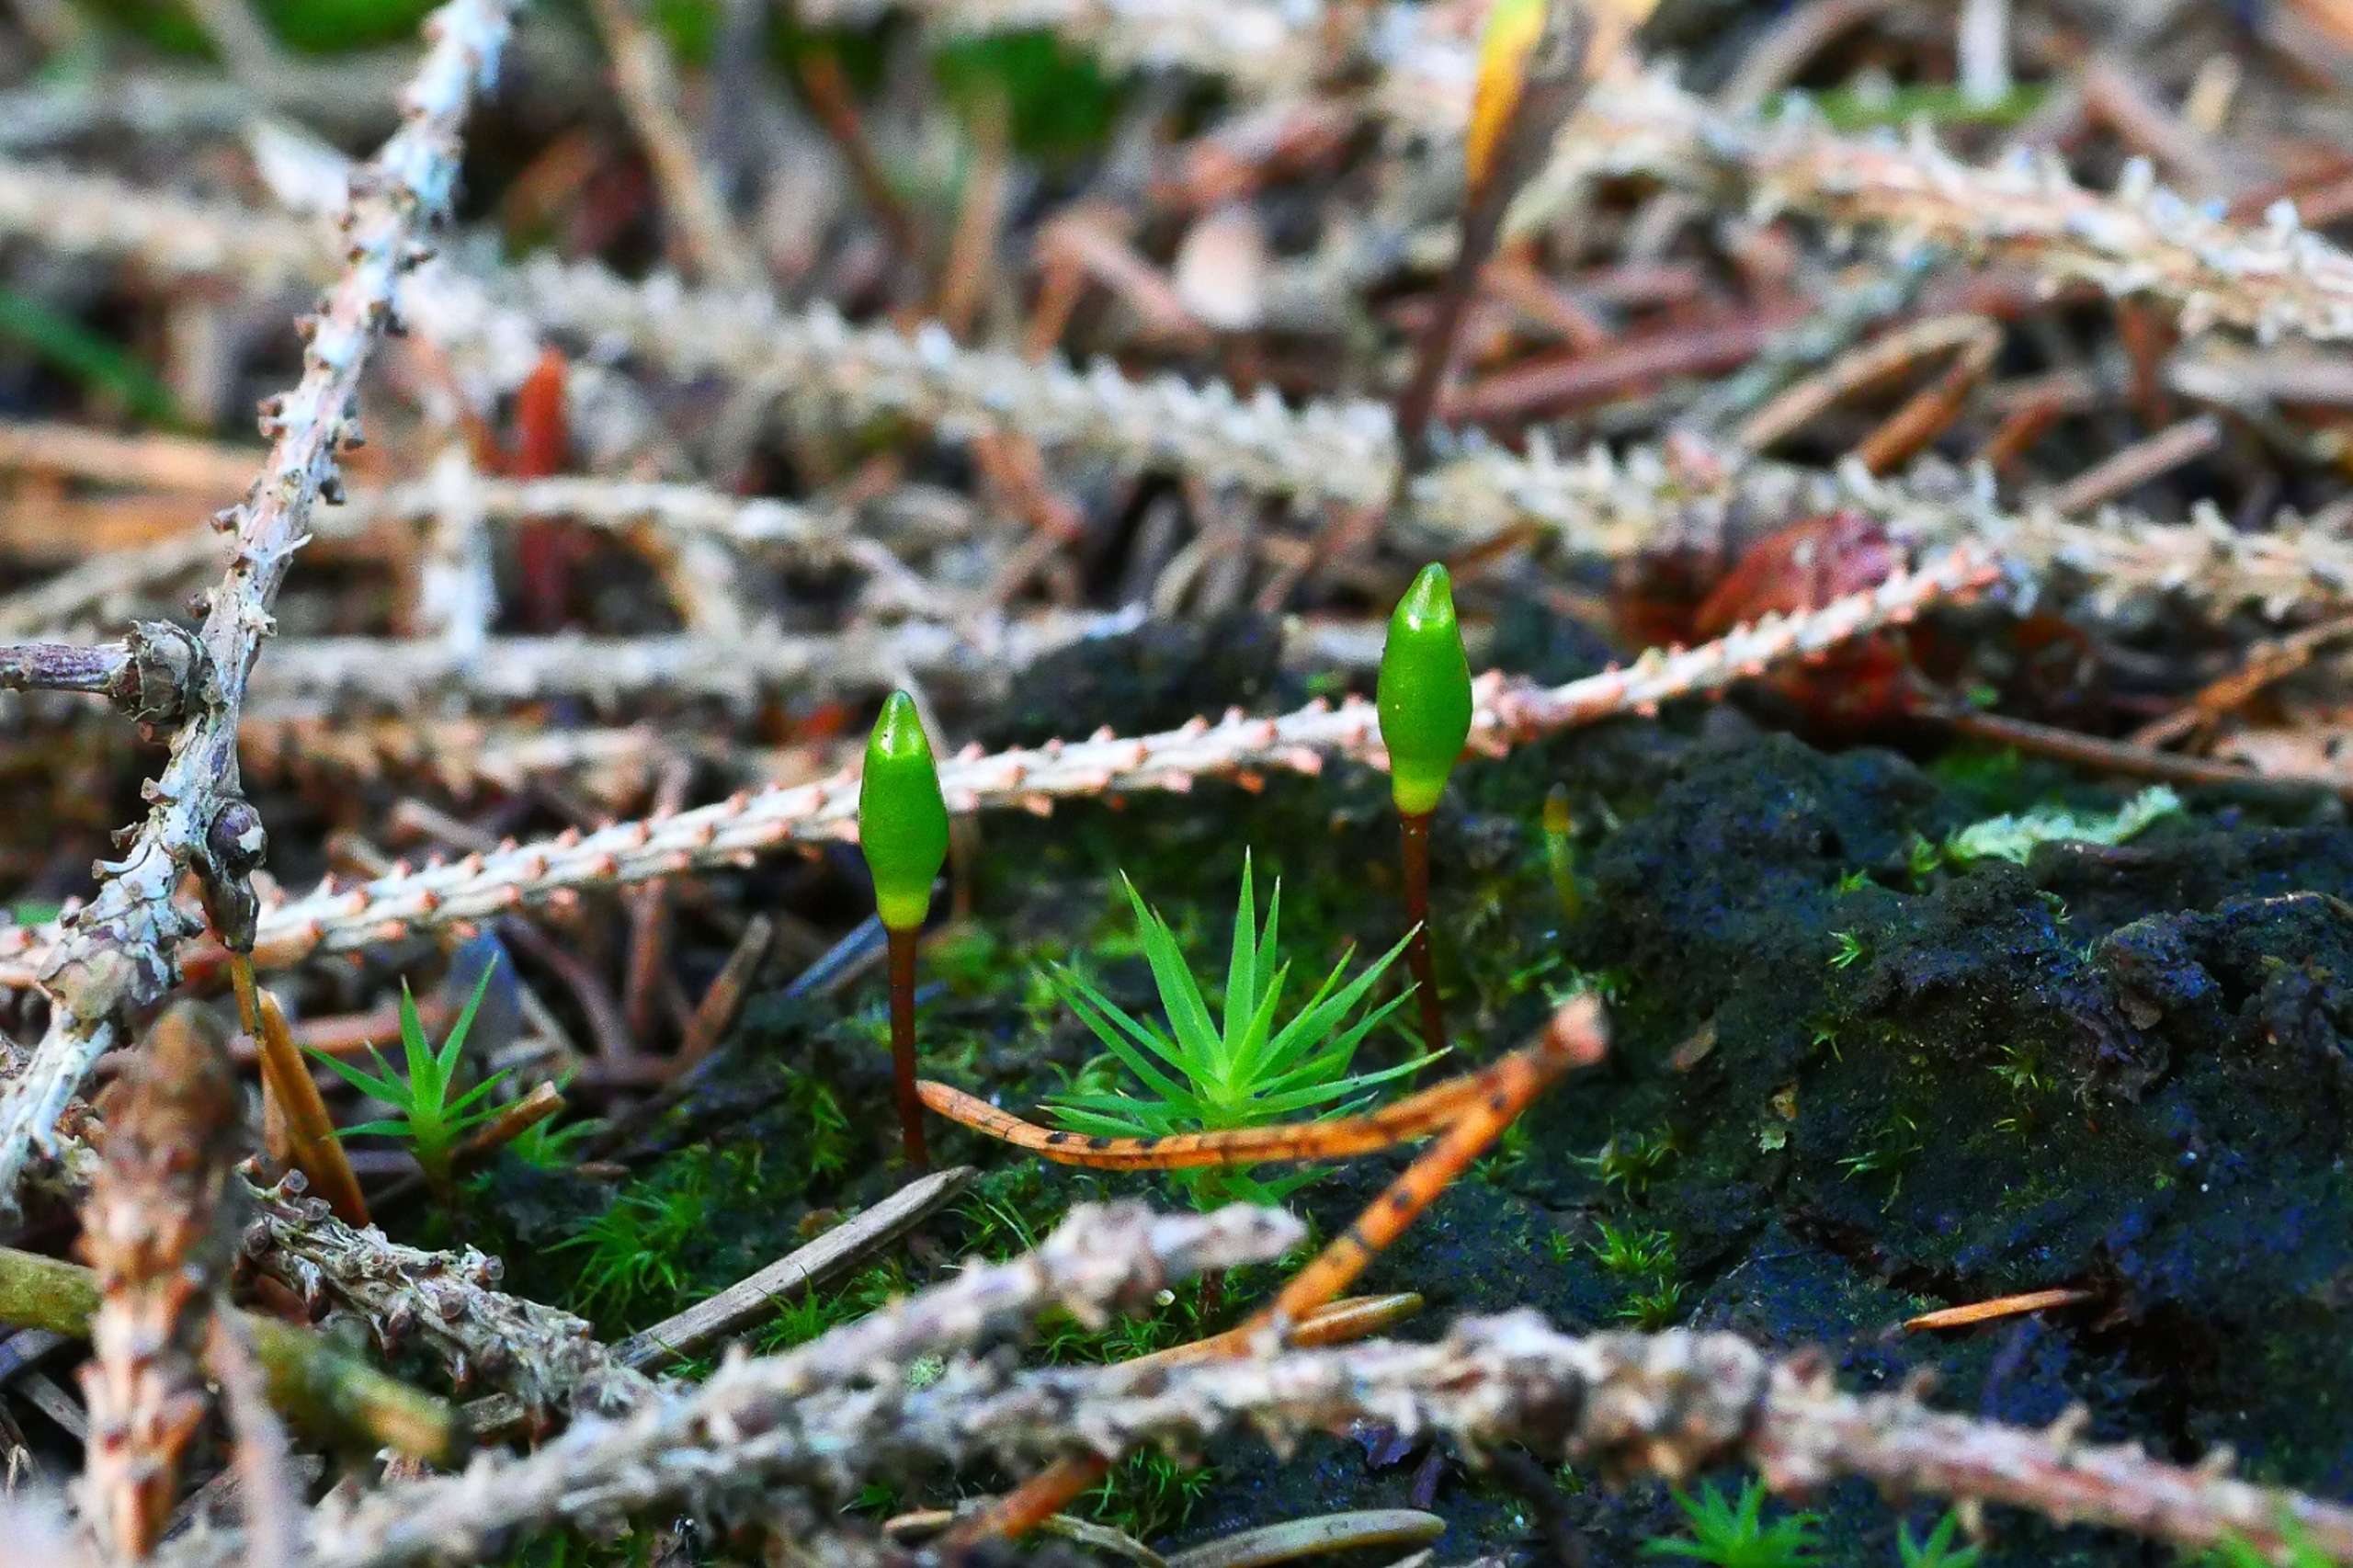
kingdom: Plantae
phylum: Bryophyta
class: Bryopsida
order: Buxbaumiales
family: Buxbaumiaceae
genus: Buxbaumia
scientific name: Buxbaumia viridis
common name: Grøn buxbaumia
